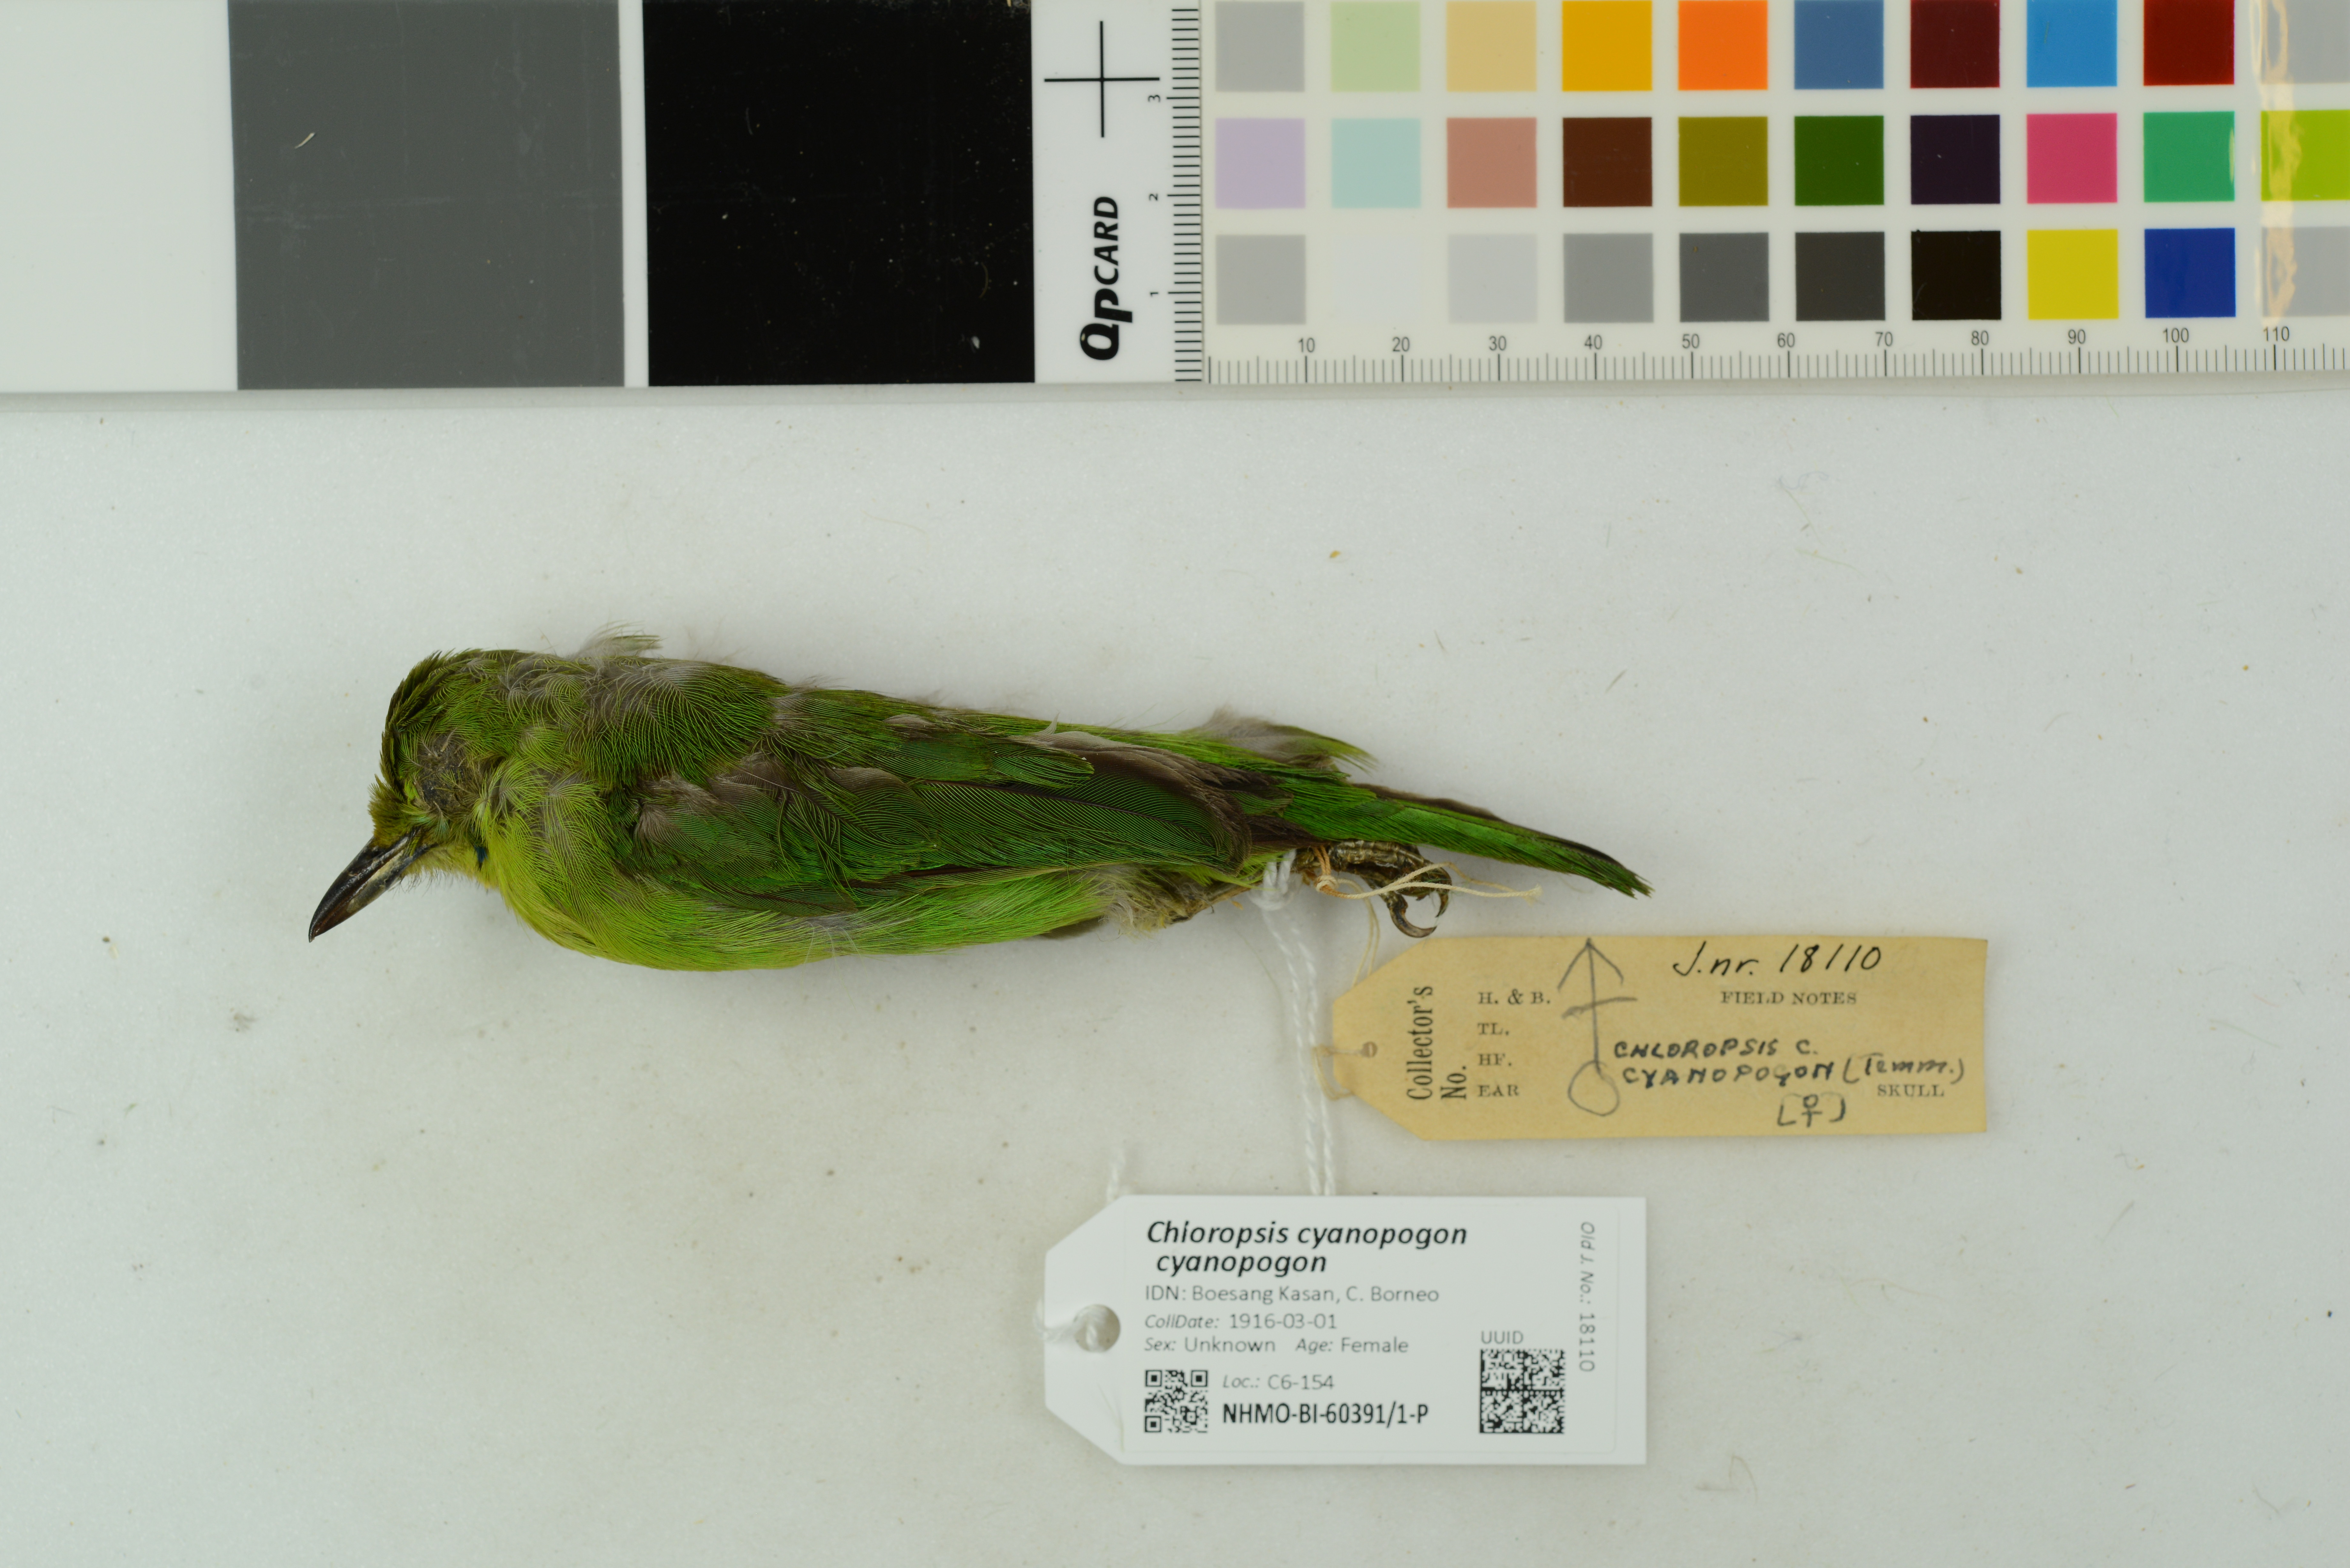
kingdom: Animalia
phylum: Chordata
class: Aves
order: Passeriformes
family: Chloropseidae
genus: Chloropsis
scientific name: Chloropsis cyanopogon
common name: Lesser green leafbird
